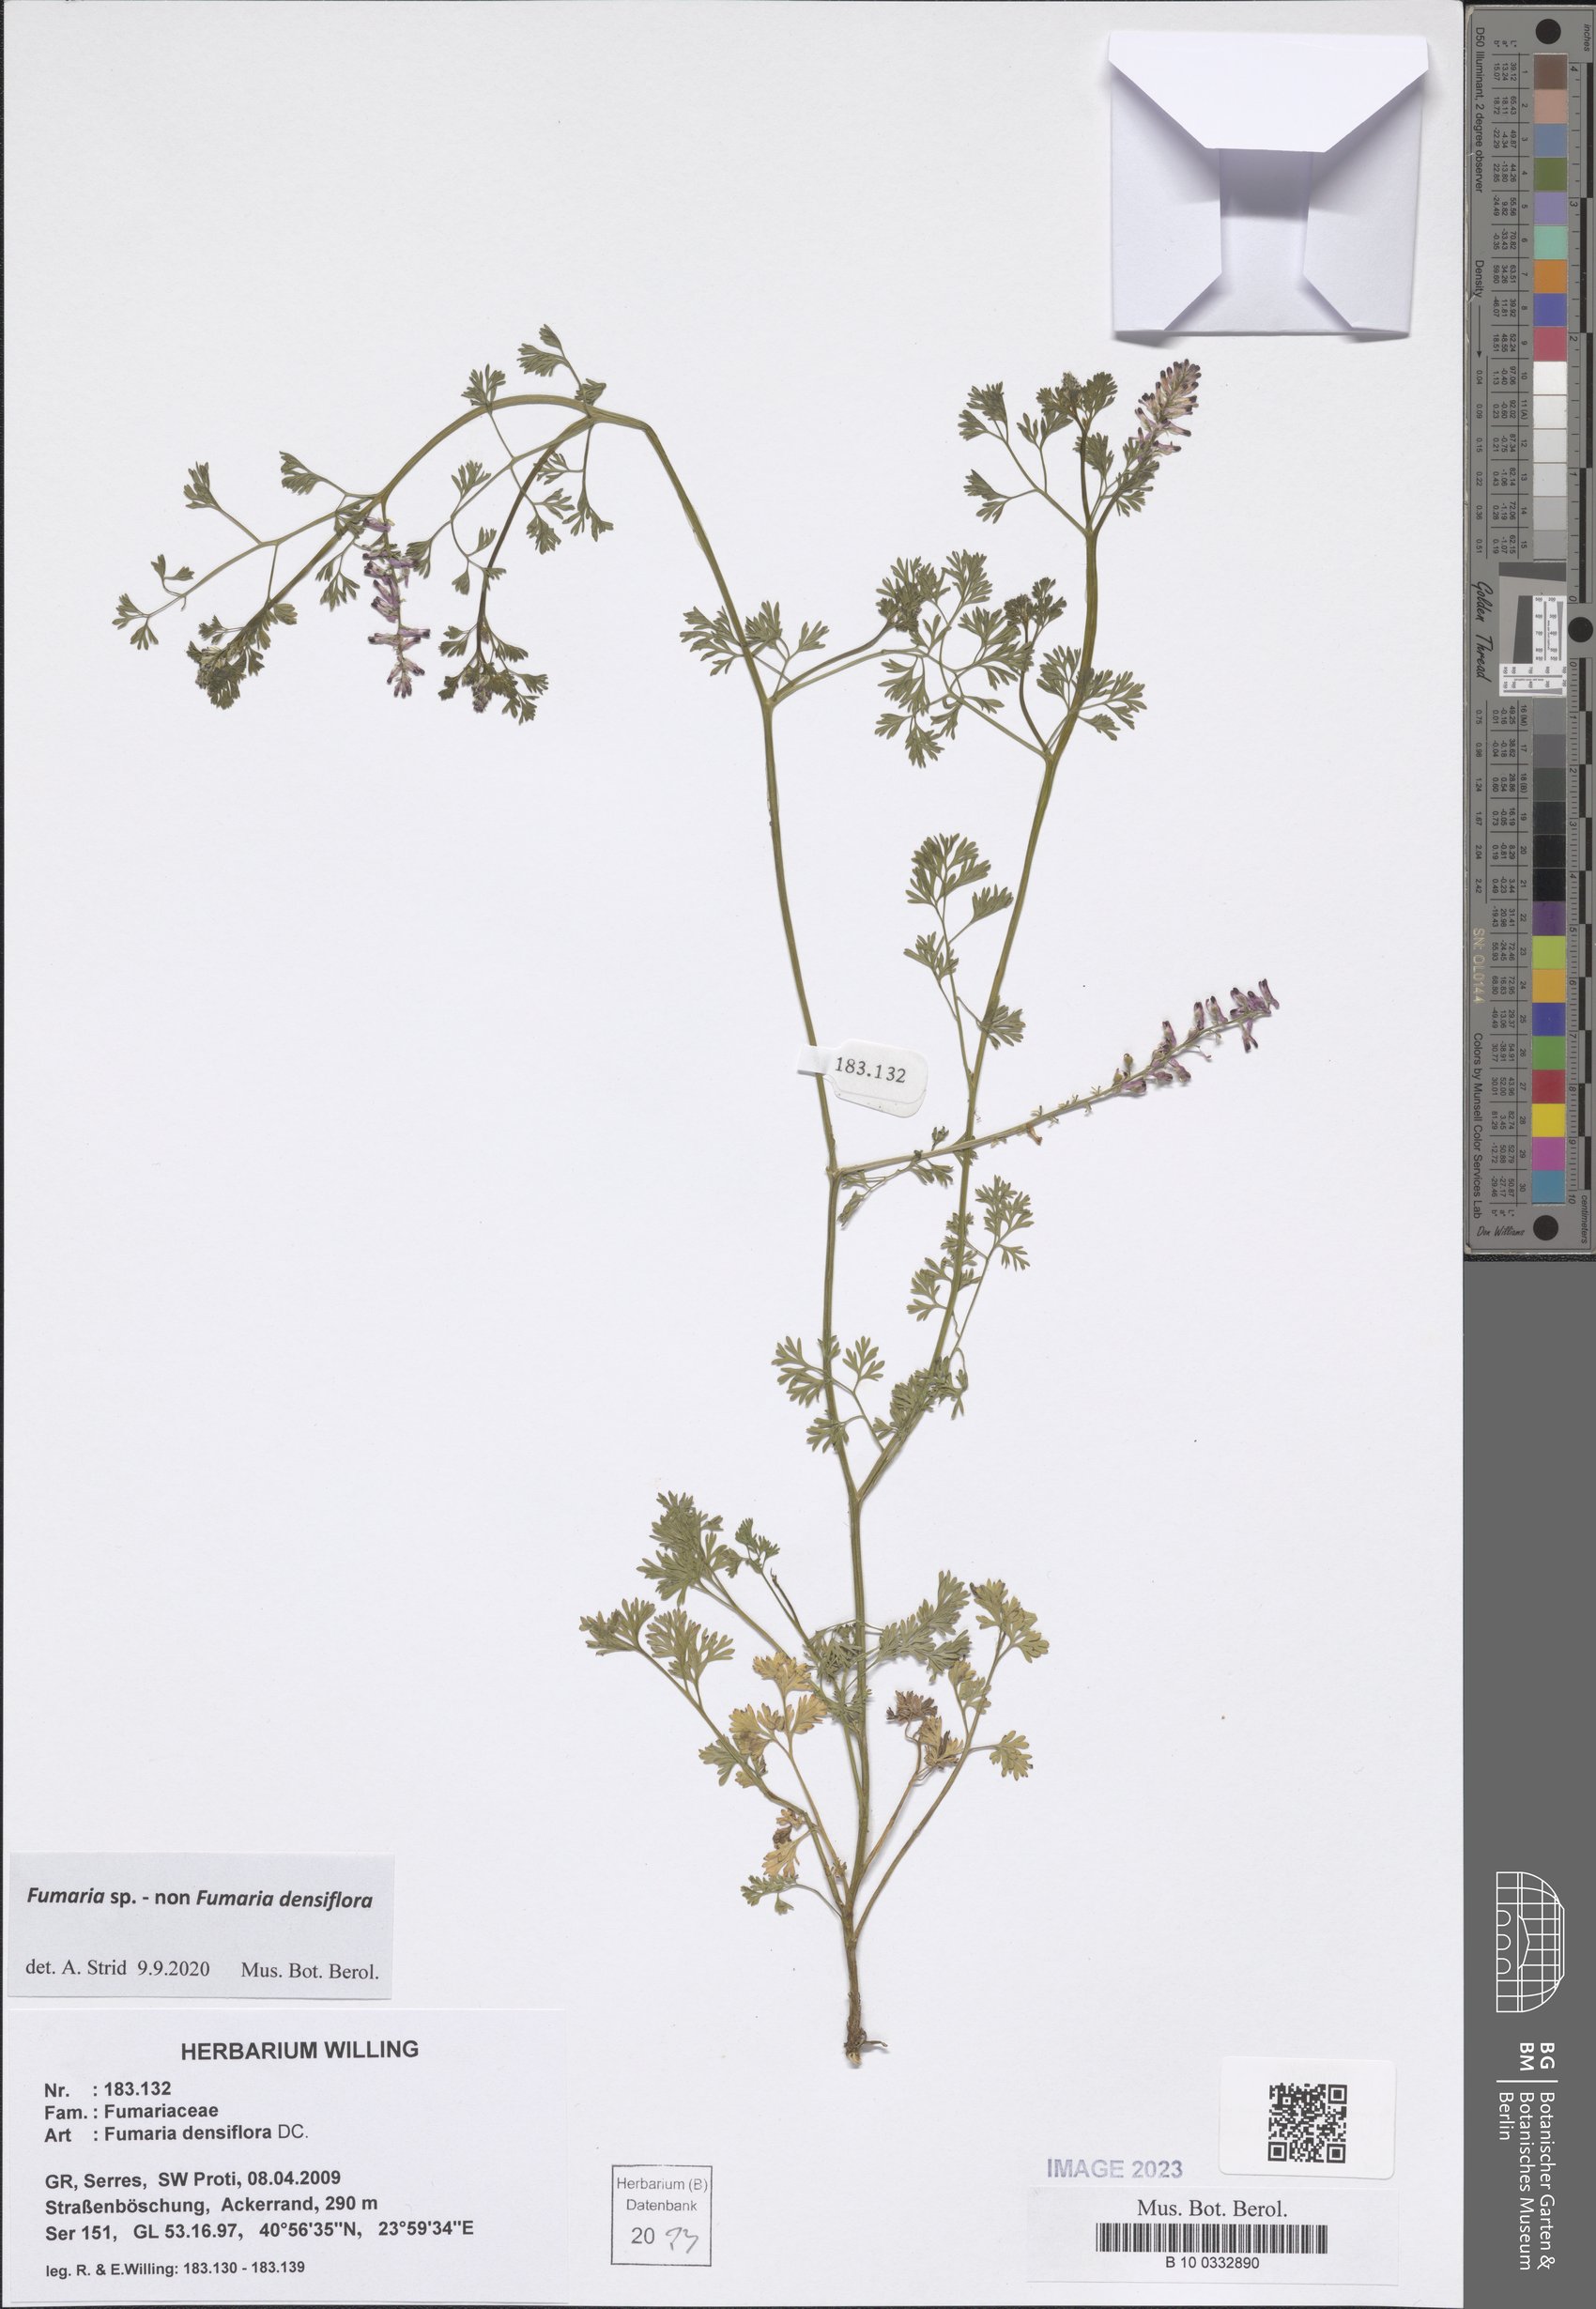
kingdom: Plantae
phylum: Tracheophyta
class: Magnoliopsida
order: Ranunculales
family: Papaveraceae
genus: Fumaria
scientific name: Fumaria
